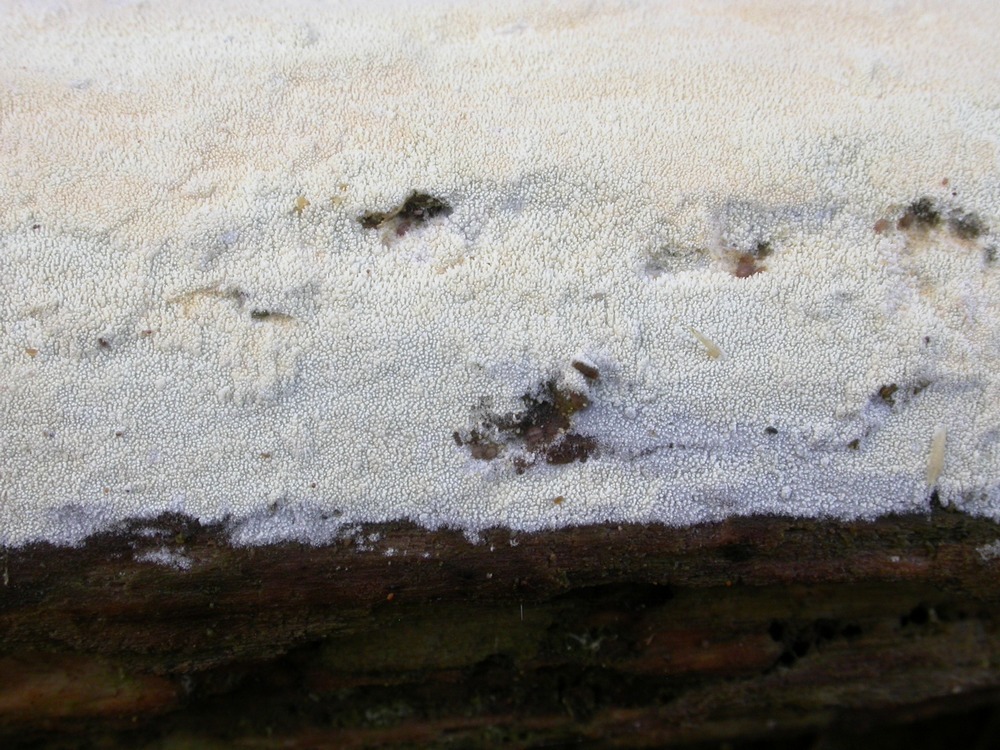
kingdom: Fungi
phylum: Basidiomycota
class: Agaricomycetes
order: Hymenochaetales
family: Schizoporaceae
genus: Xylodon
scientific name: Xylodon nesporii
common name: fintandet tandsvamp
